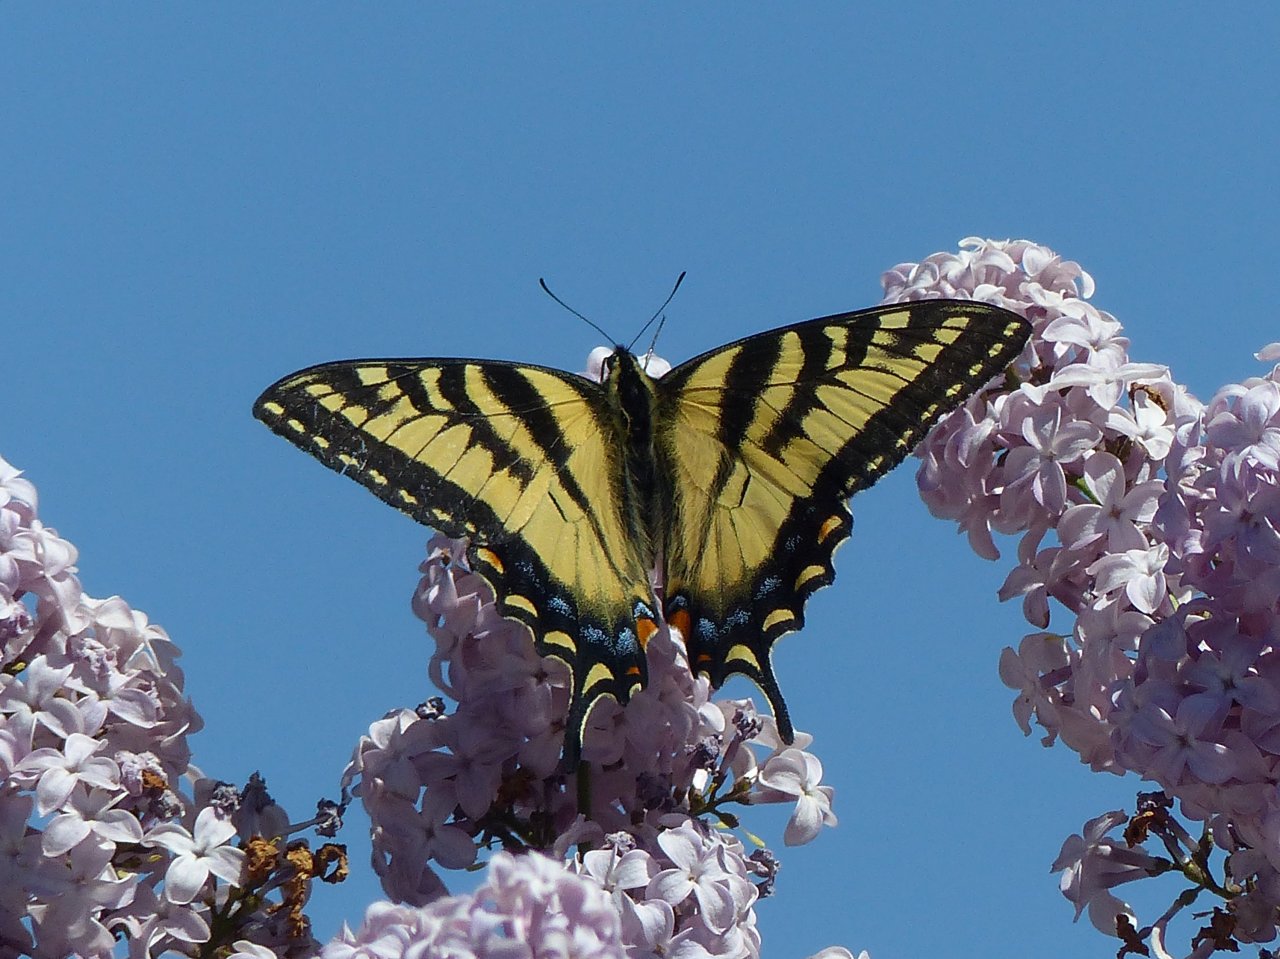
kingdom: Animalia
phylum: Arthropoda
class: Insecta
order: Lepidoptera
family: Papilionidae
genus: Pterourus
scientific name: Pterourus canadensis
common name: Canadian Tiger Swallowtail
